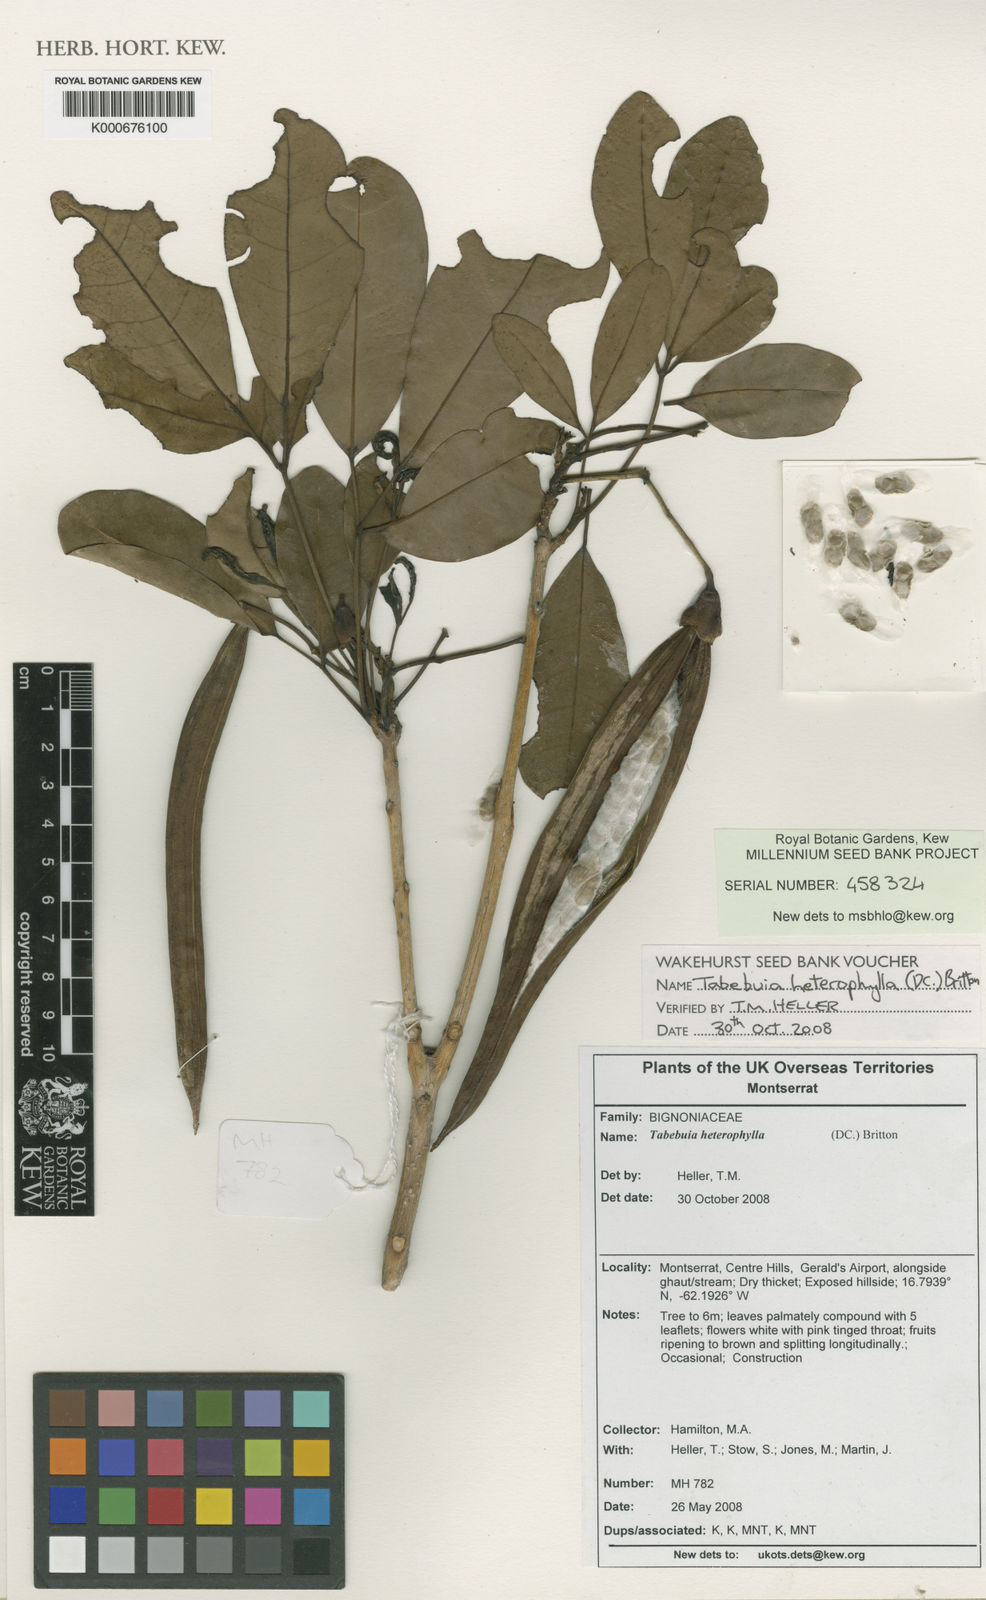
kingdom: Plantae
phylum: Tracheophyta
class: Magnoliopsida
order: Lamiales
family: Bignoniaceae
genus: Tabebuia
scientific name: Tabebuia heterophylla
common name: White cedar
